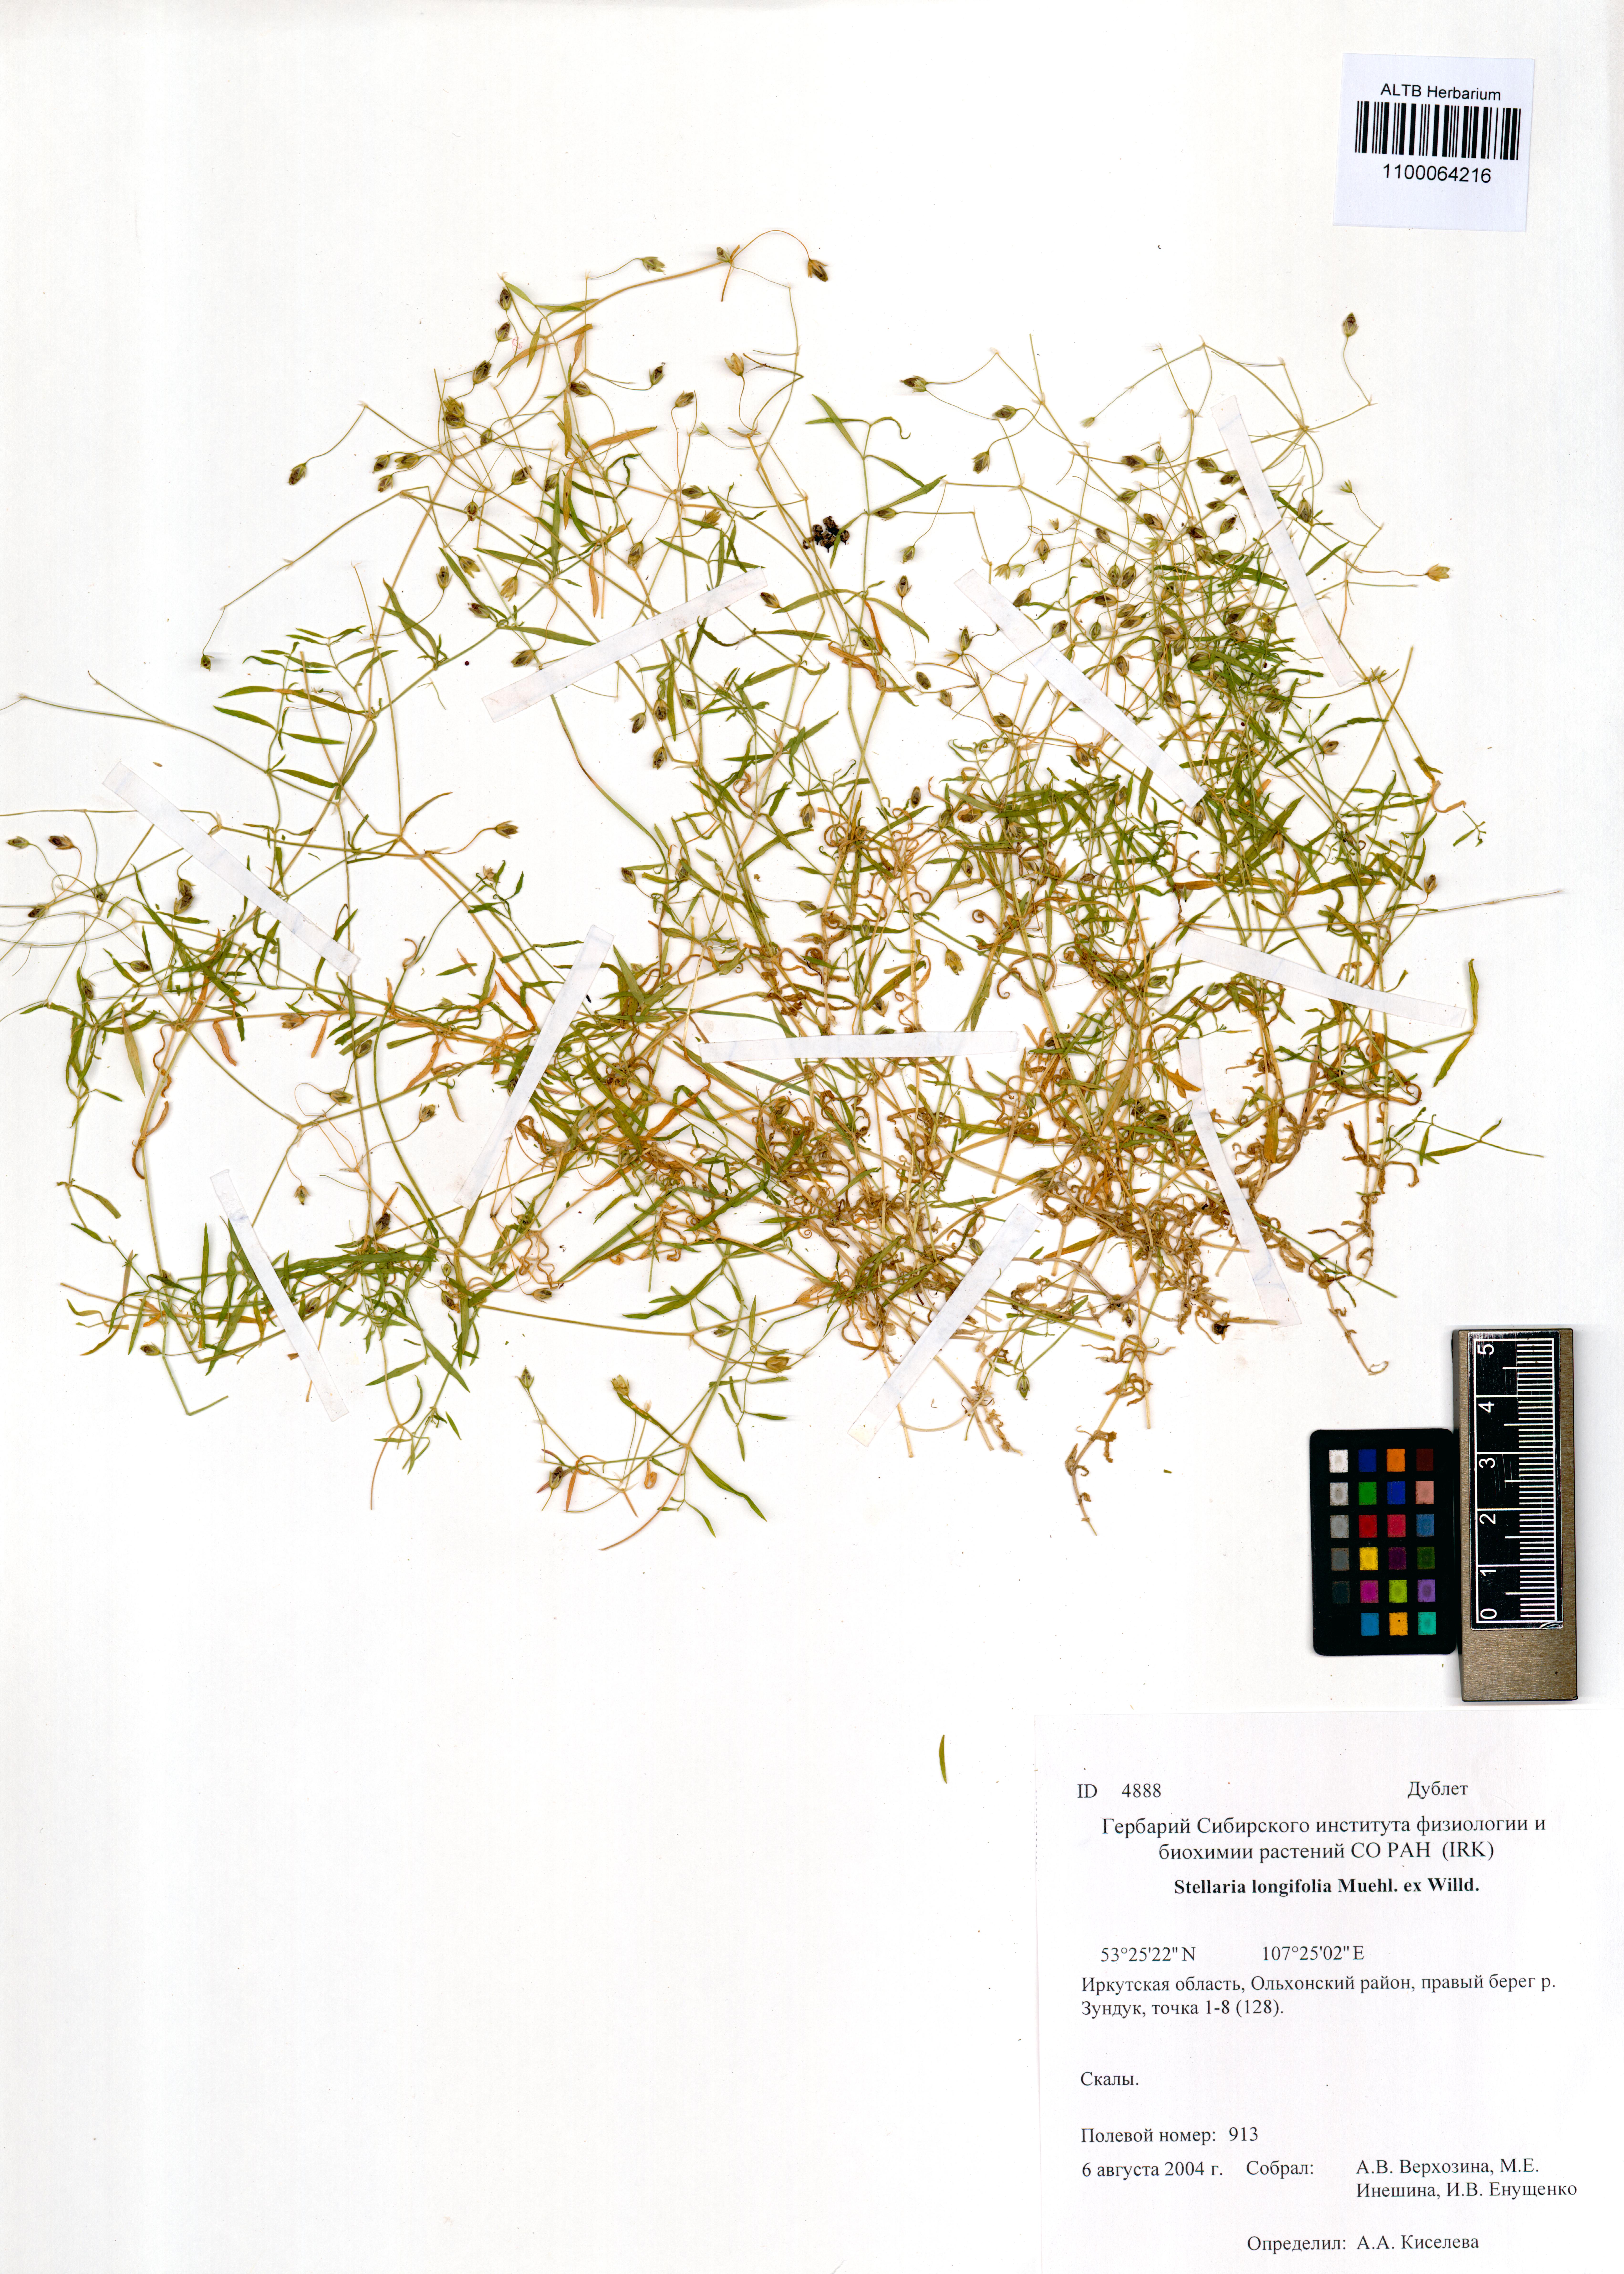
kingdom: Plantae
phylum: Tracheophyta
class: Magnoliopsida
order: Caryophyllales
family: Caryophyllaceae
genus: Stellaria
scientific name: Stellaria longifolia
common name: Long-leaved chickweed
